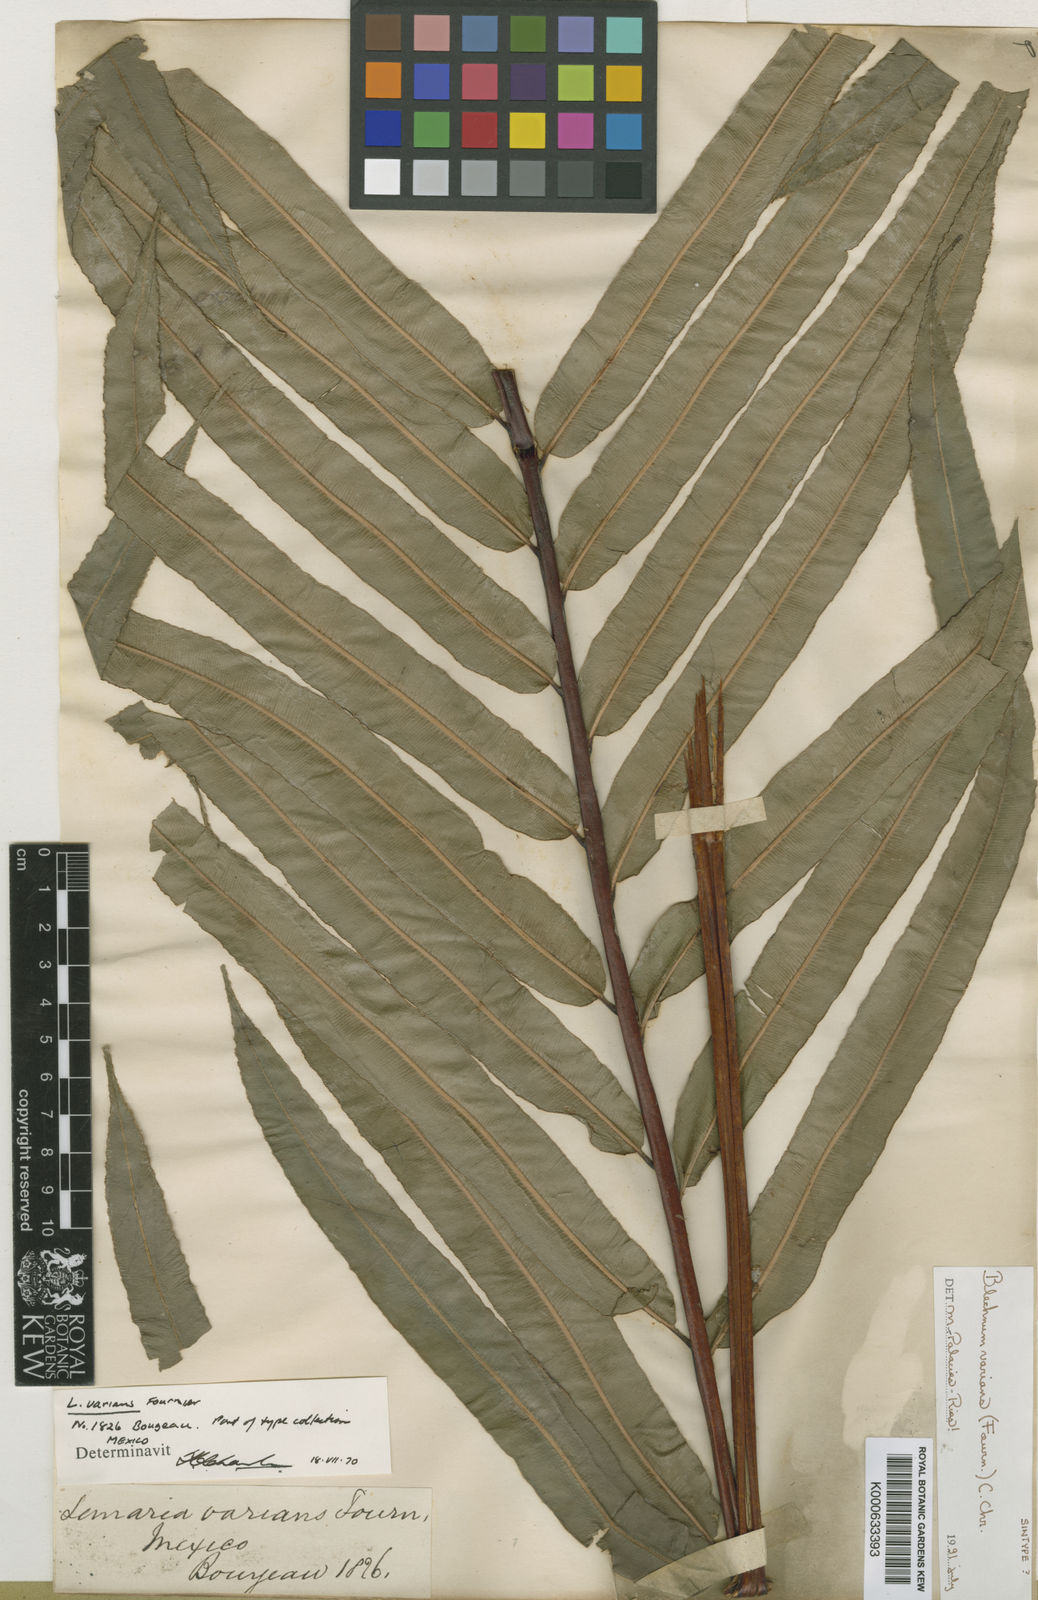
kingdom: Plantae
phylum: Tracheophyta
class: Polypodiopsida
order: Polypodiales
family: Blechnaceae
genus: Parablechnum
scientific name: Parablechnum schiedeanum
